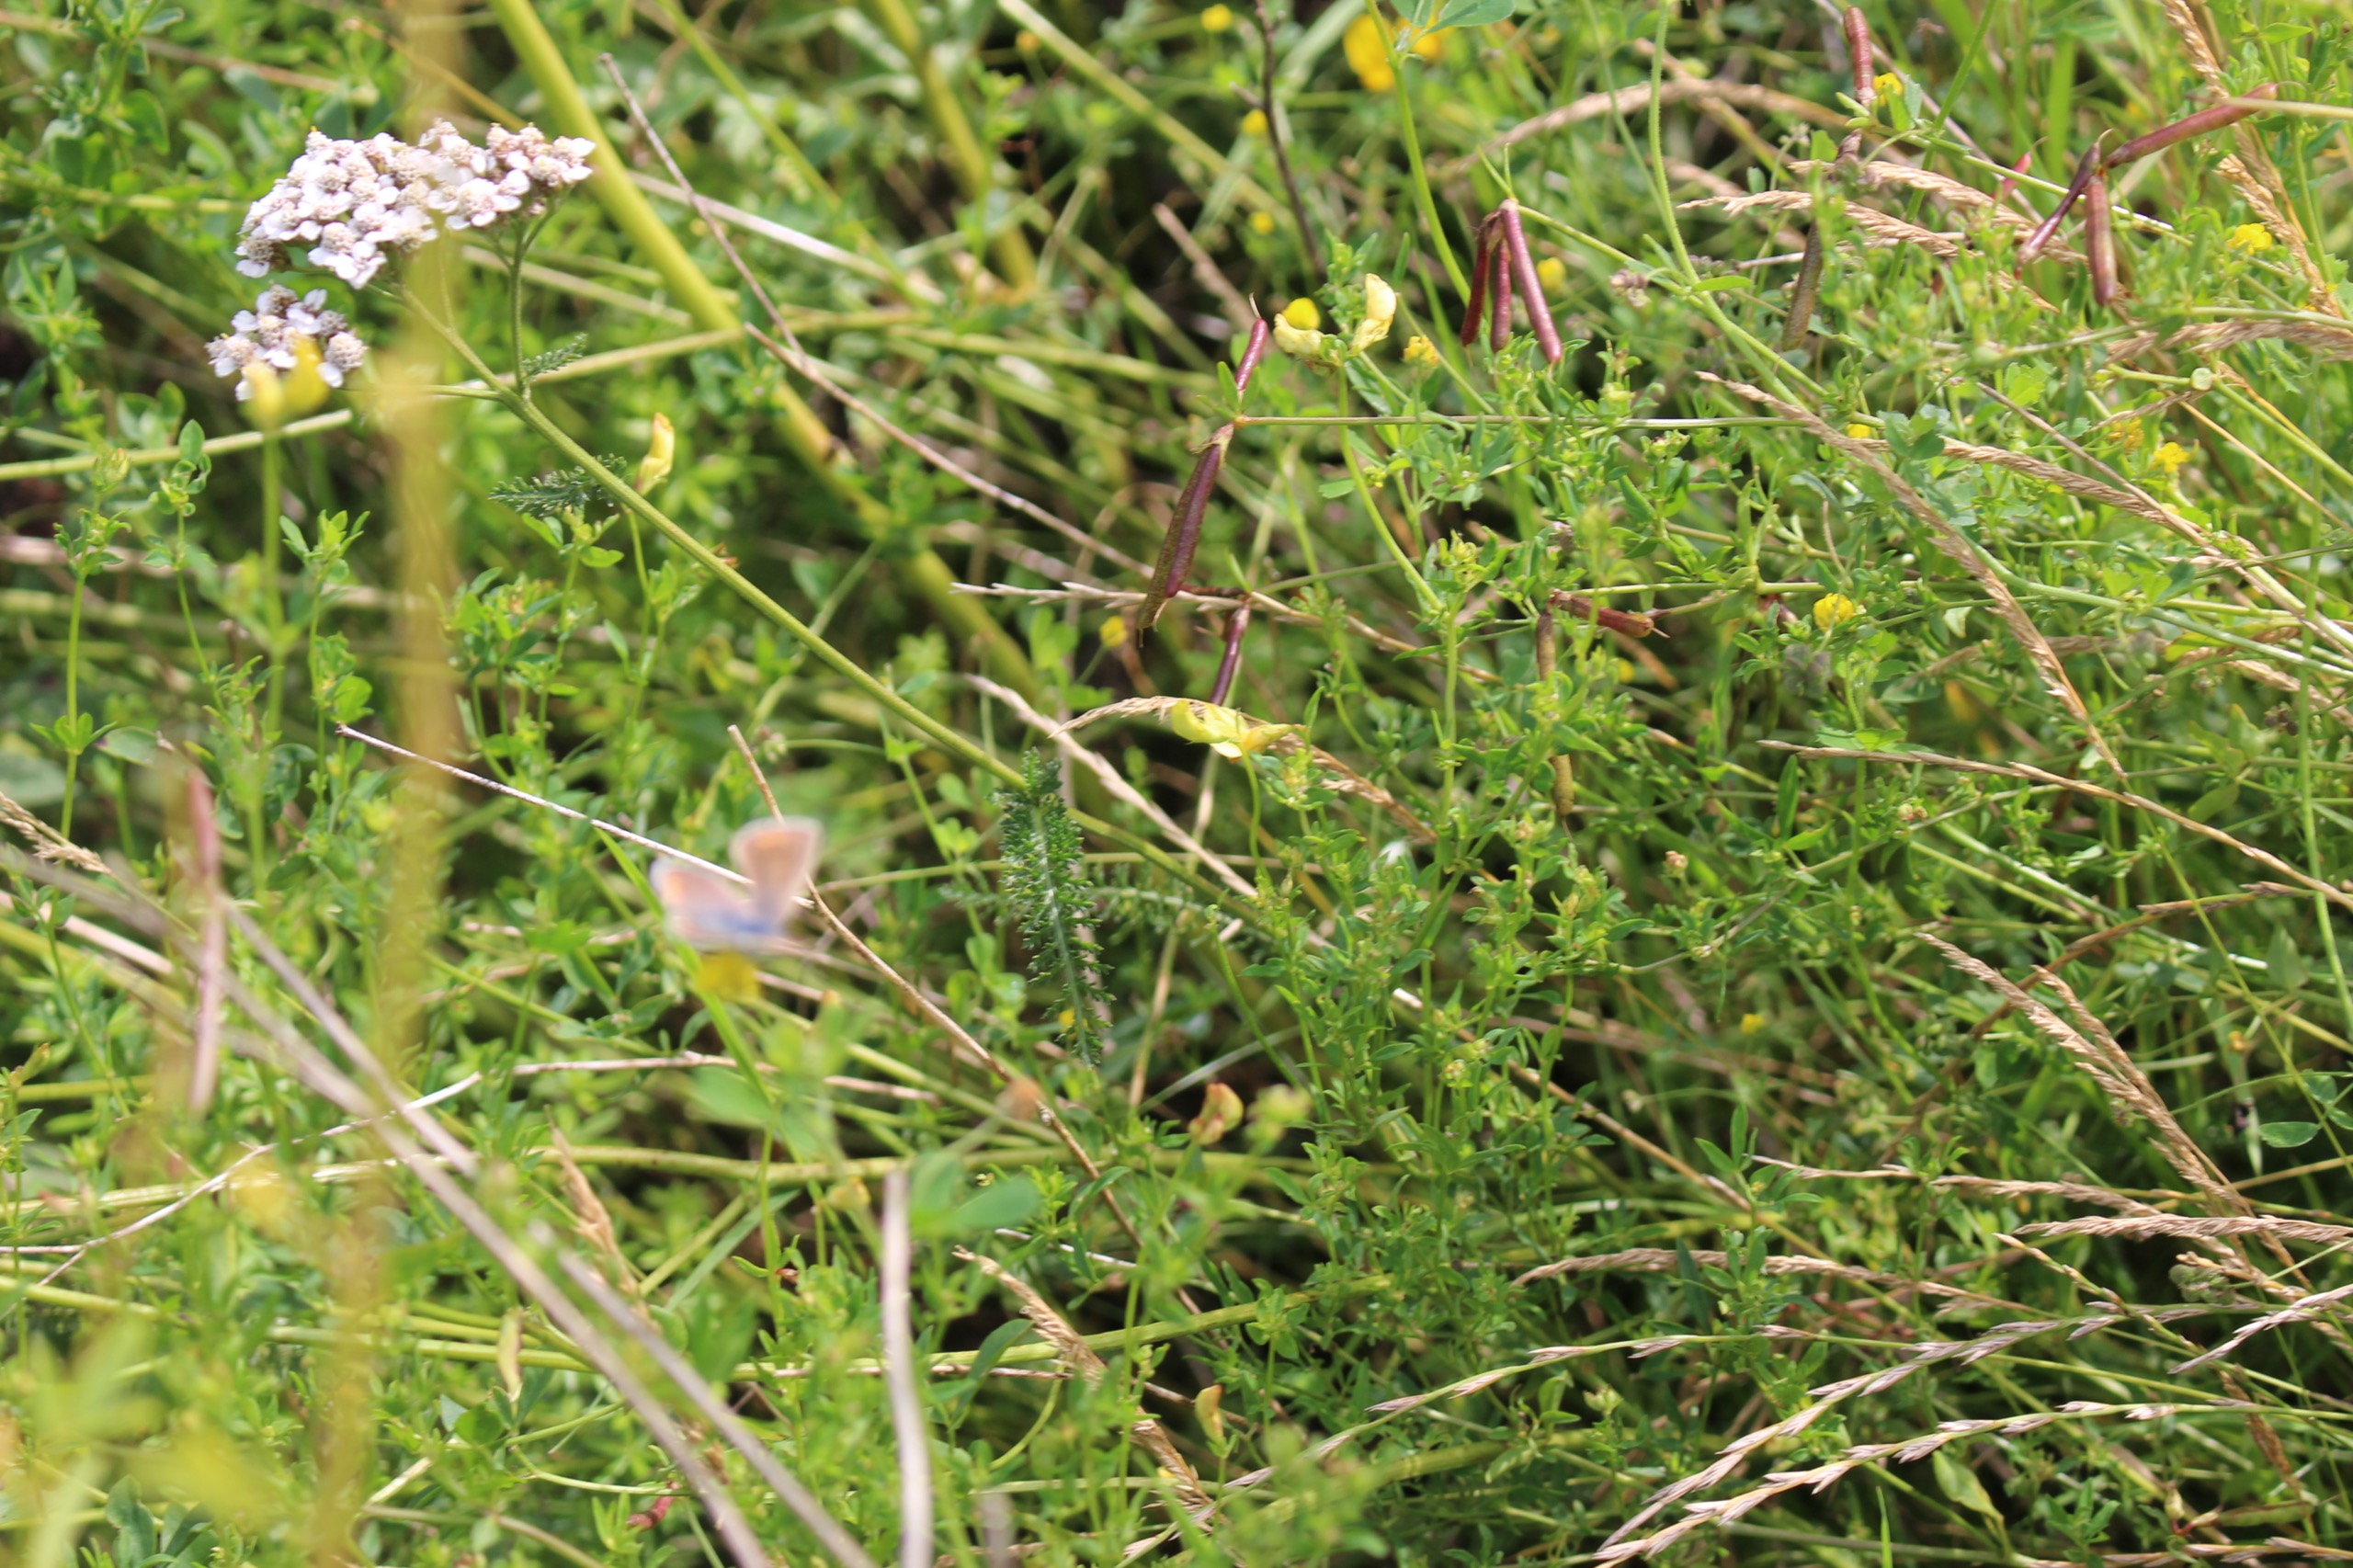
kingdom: Animalia
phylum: Arthropoda
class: Insecta
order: Lepidoptera
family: Lycaenidae
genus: Polyommatus
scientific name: Polyommatus icarus
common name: Almindelig blåfugl
